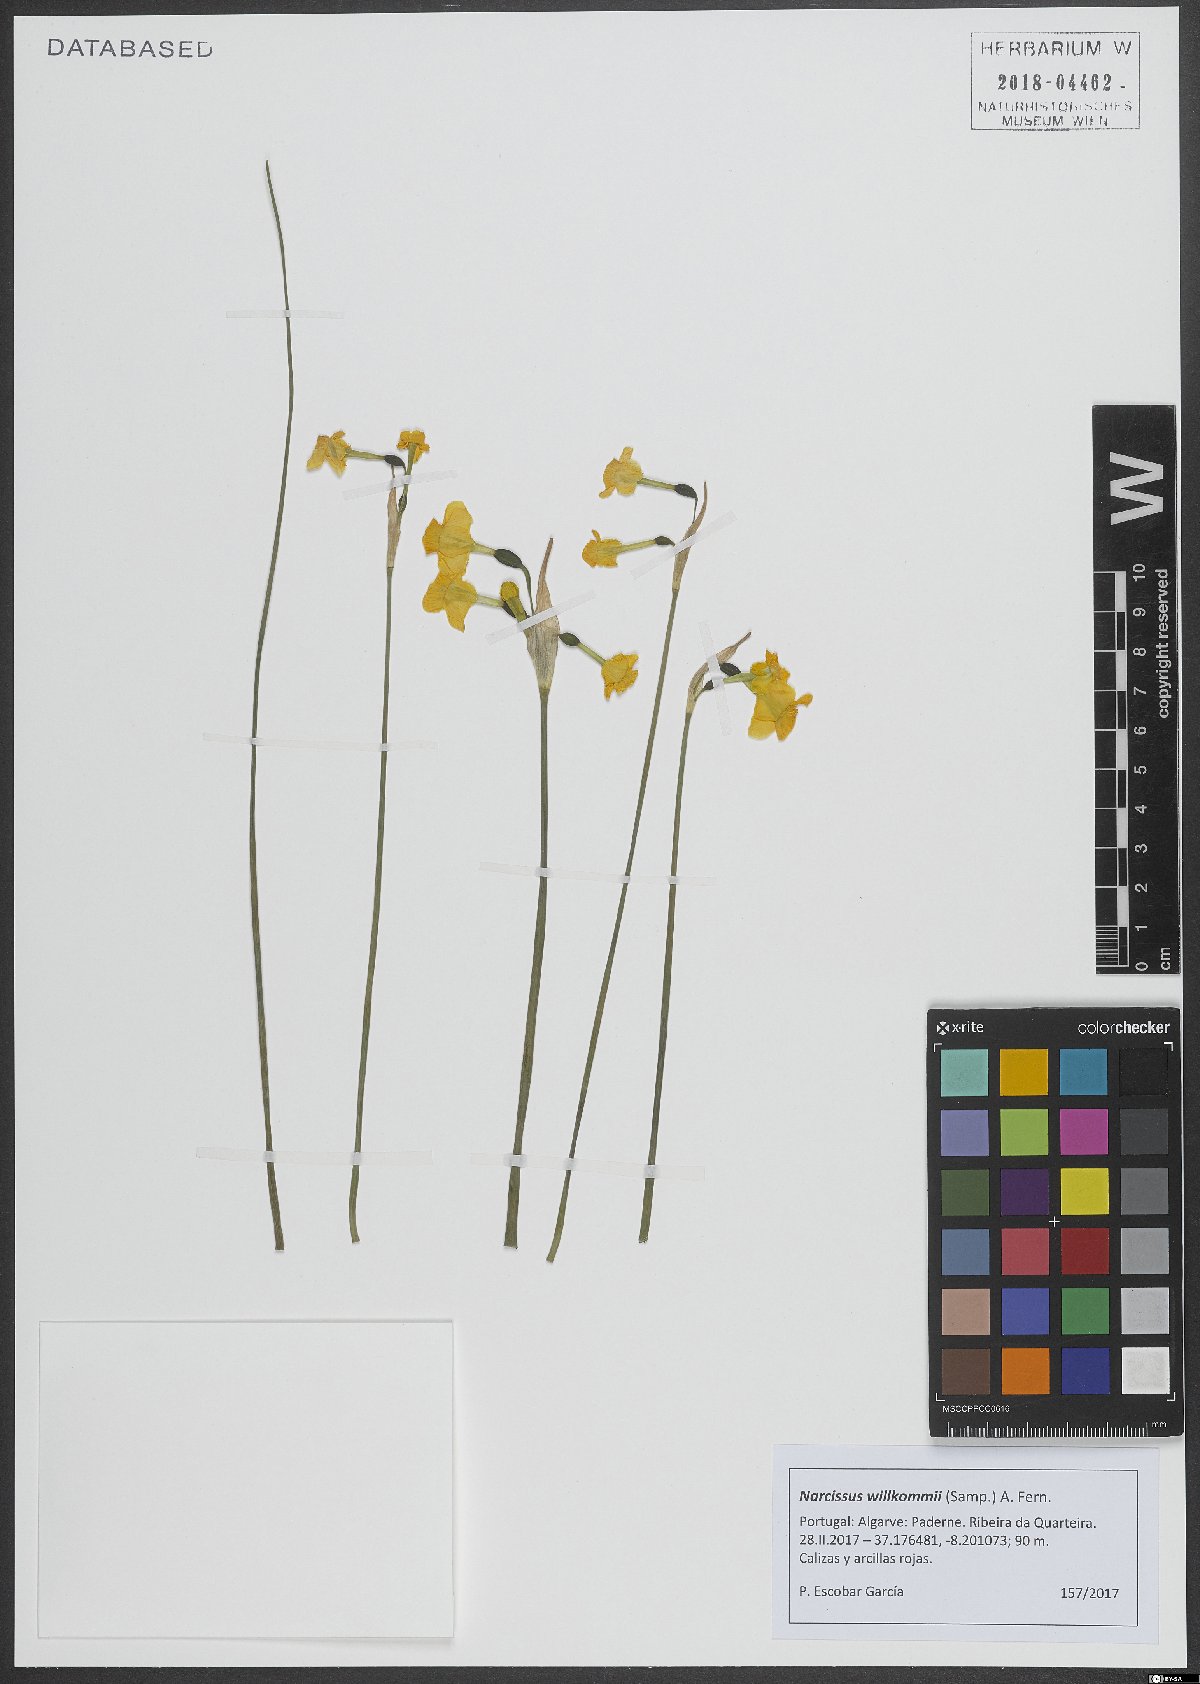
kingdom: Plantae
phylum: Tracheophyta
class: Liliopsida
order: Asparagales
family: Amaryllidaceae
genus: Narcissus
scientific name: Narcissus willkommii
